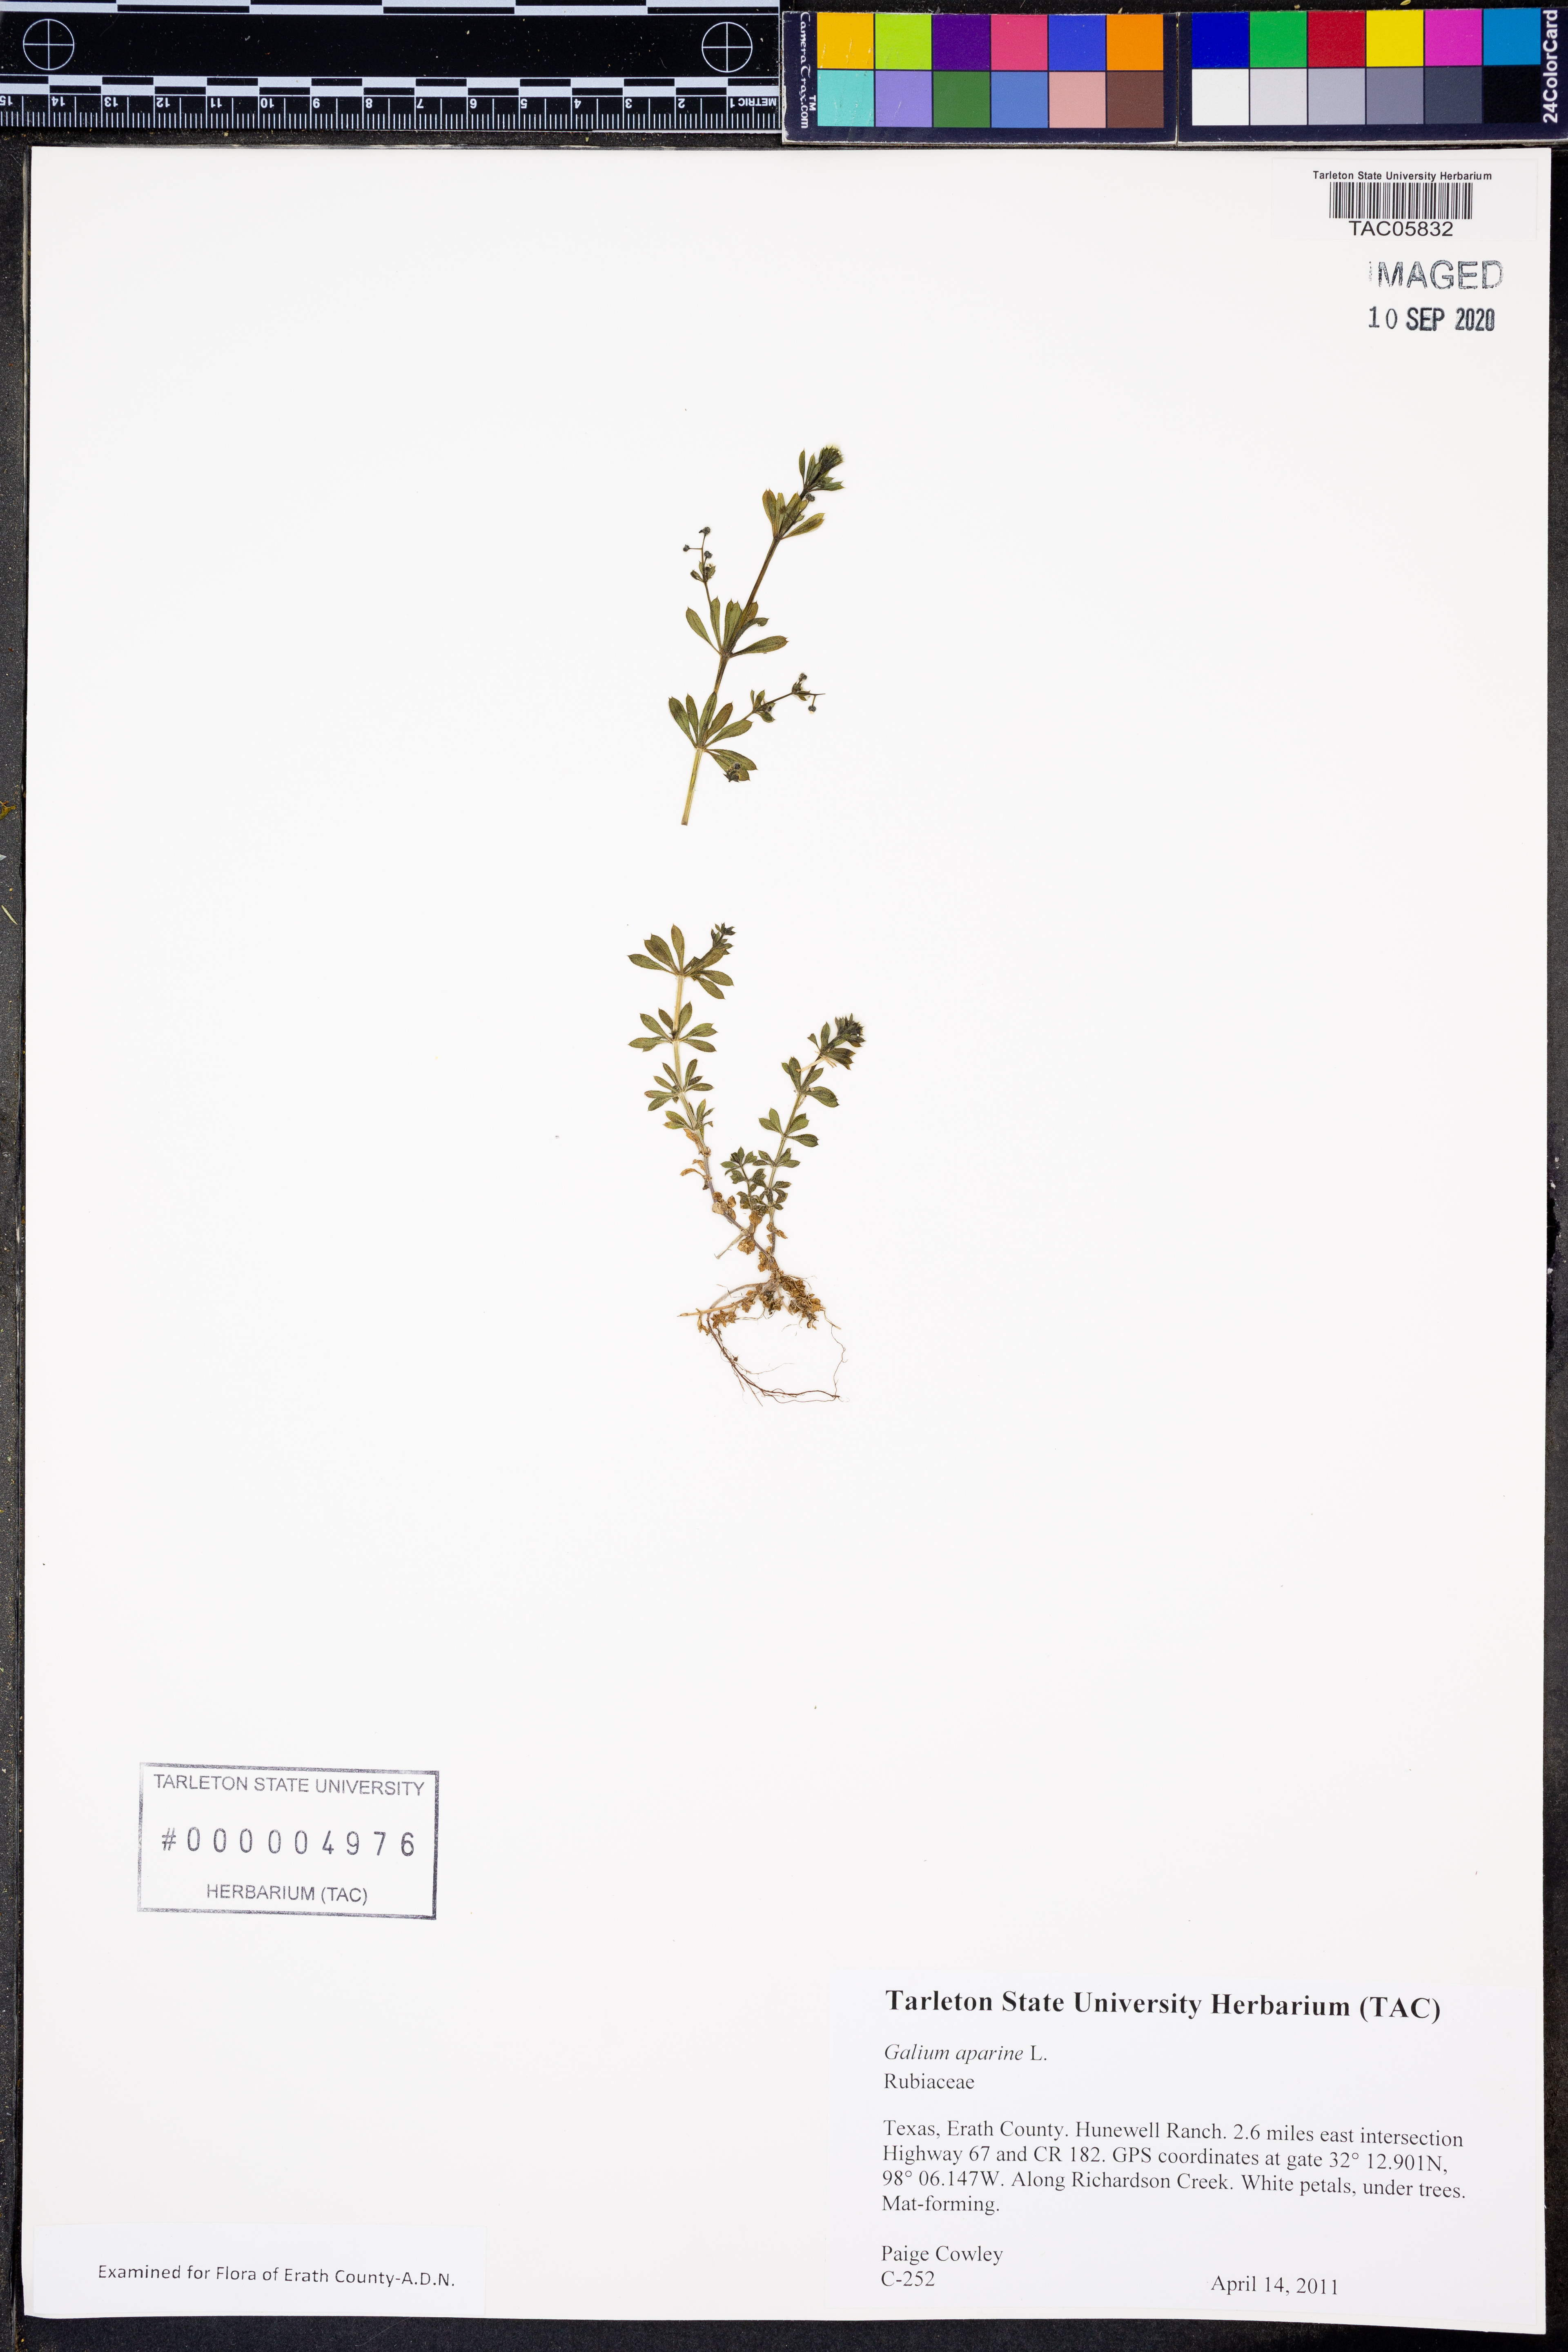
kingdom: Plantae
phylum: Tracheophyta
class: Magnoliopsida
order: Gentianales
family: Rubiaceae
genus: Galium
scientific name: Galium aparine
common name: Cleavers
